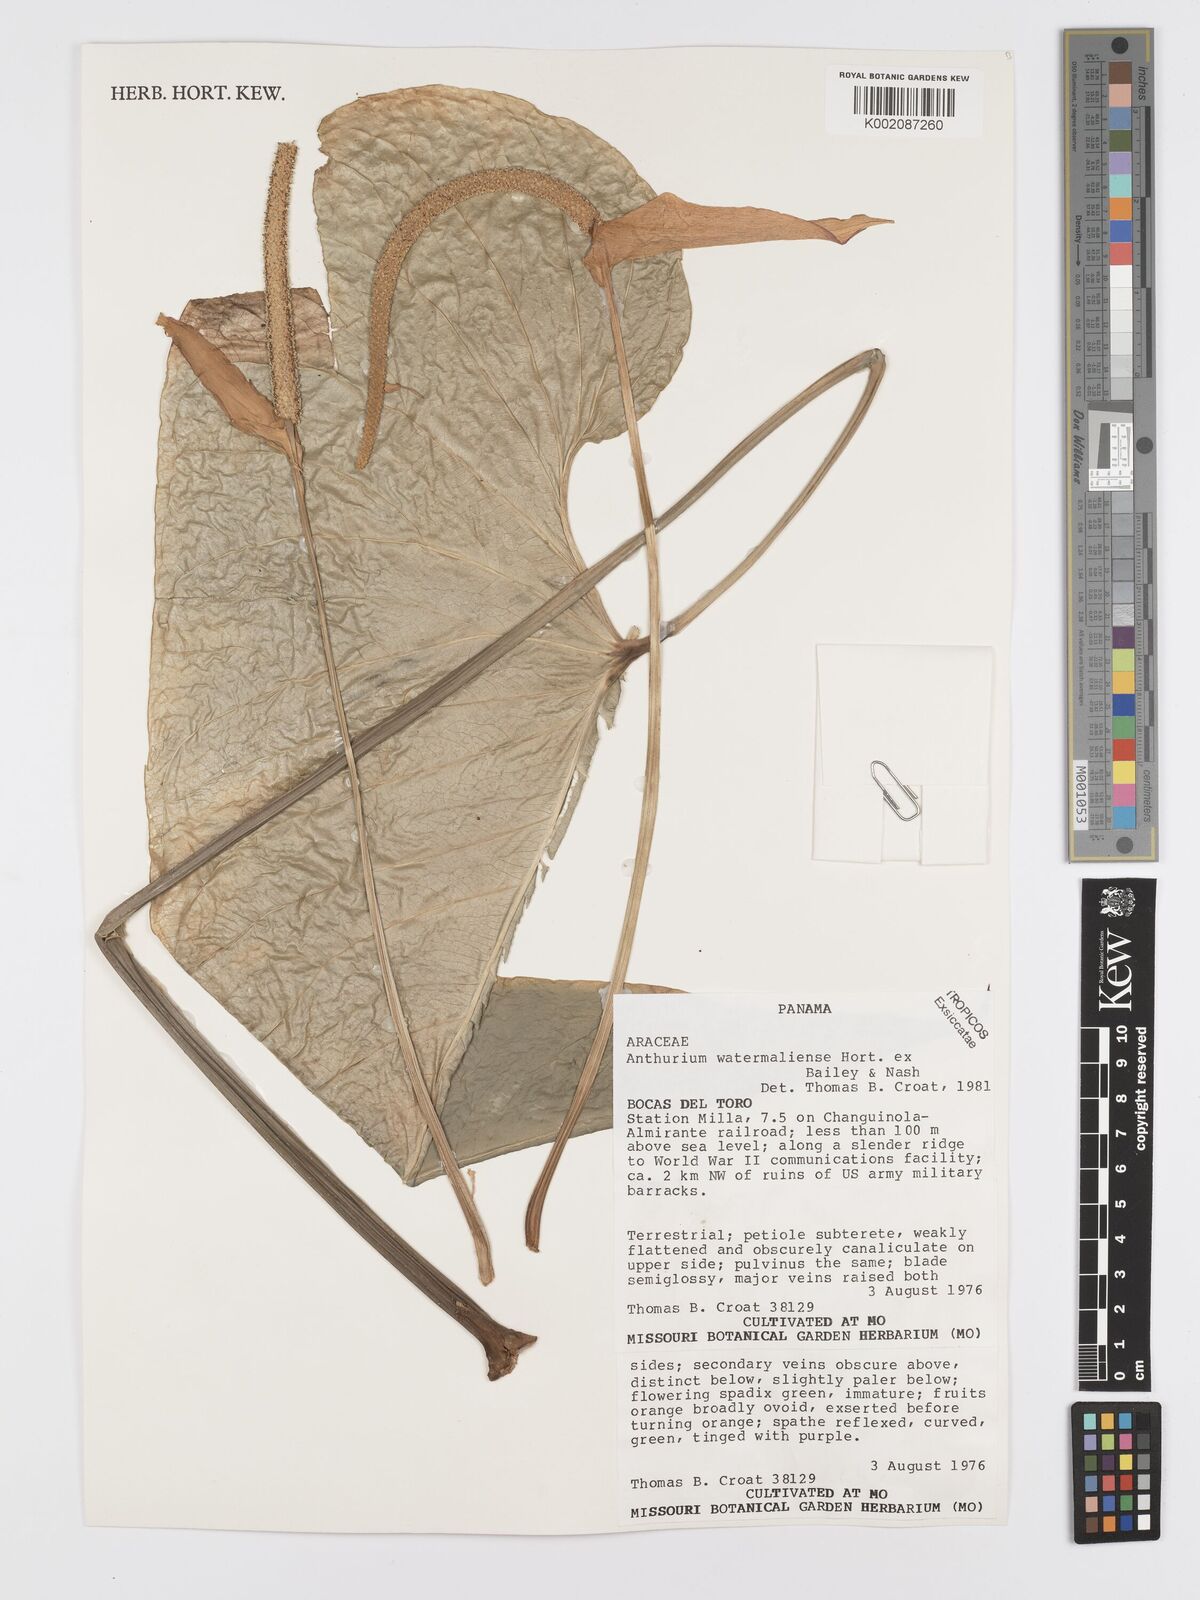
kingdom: Plantae
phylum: Tracheophyta
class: Liliopsida
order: Alismatales
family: Araceae
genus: Anthurium
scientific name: Anthurium watermaliense
